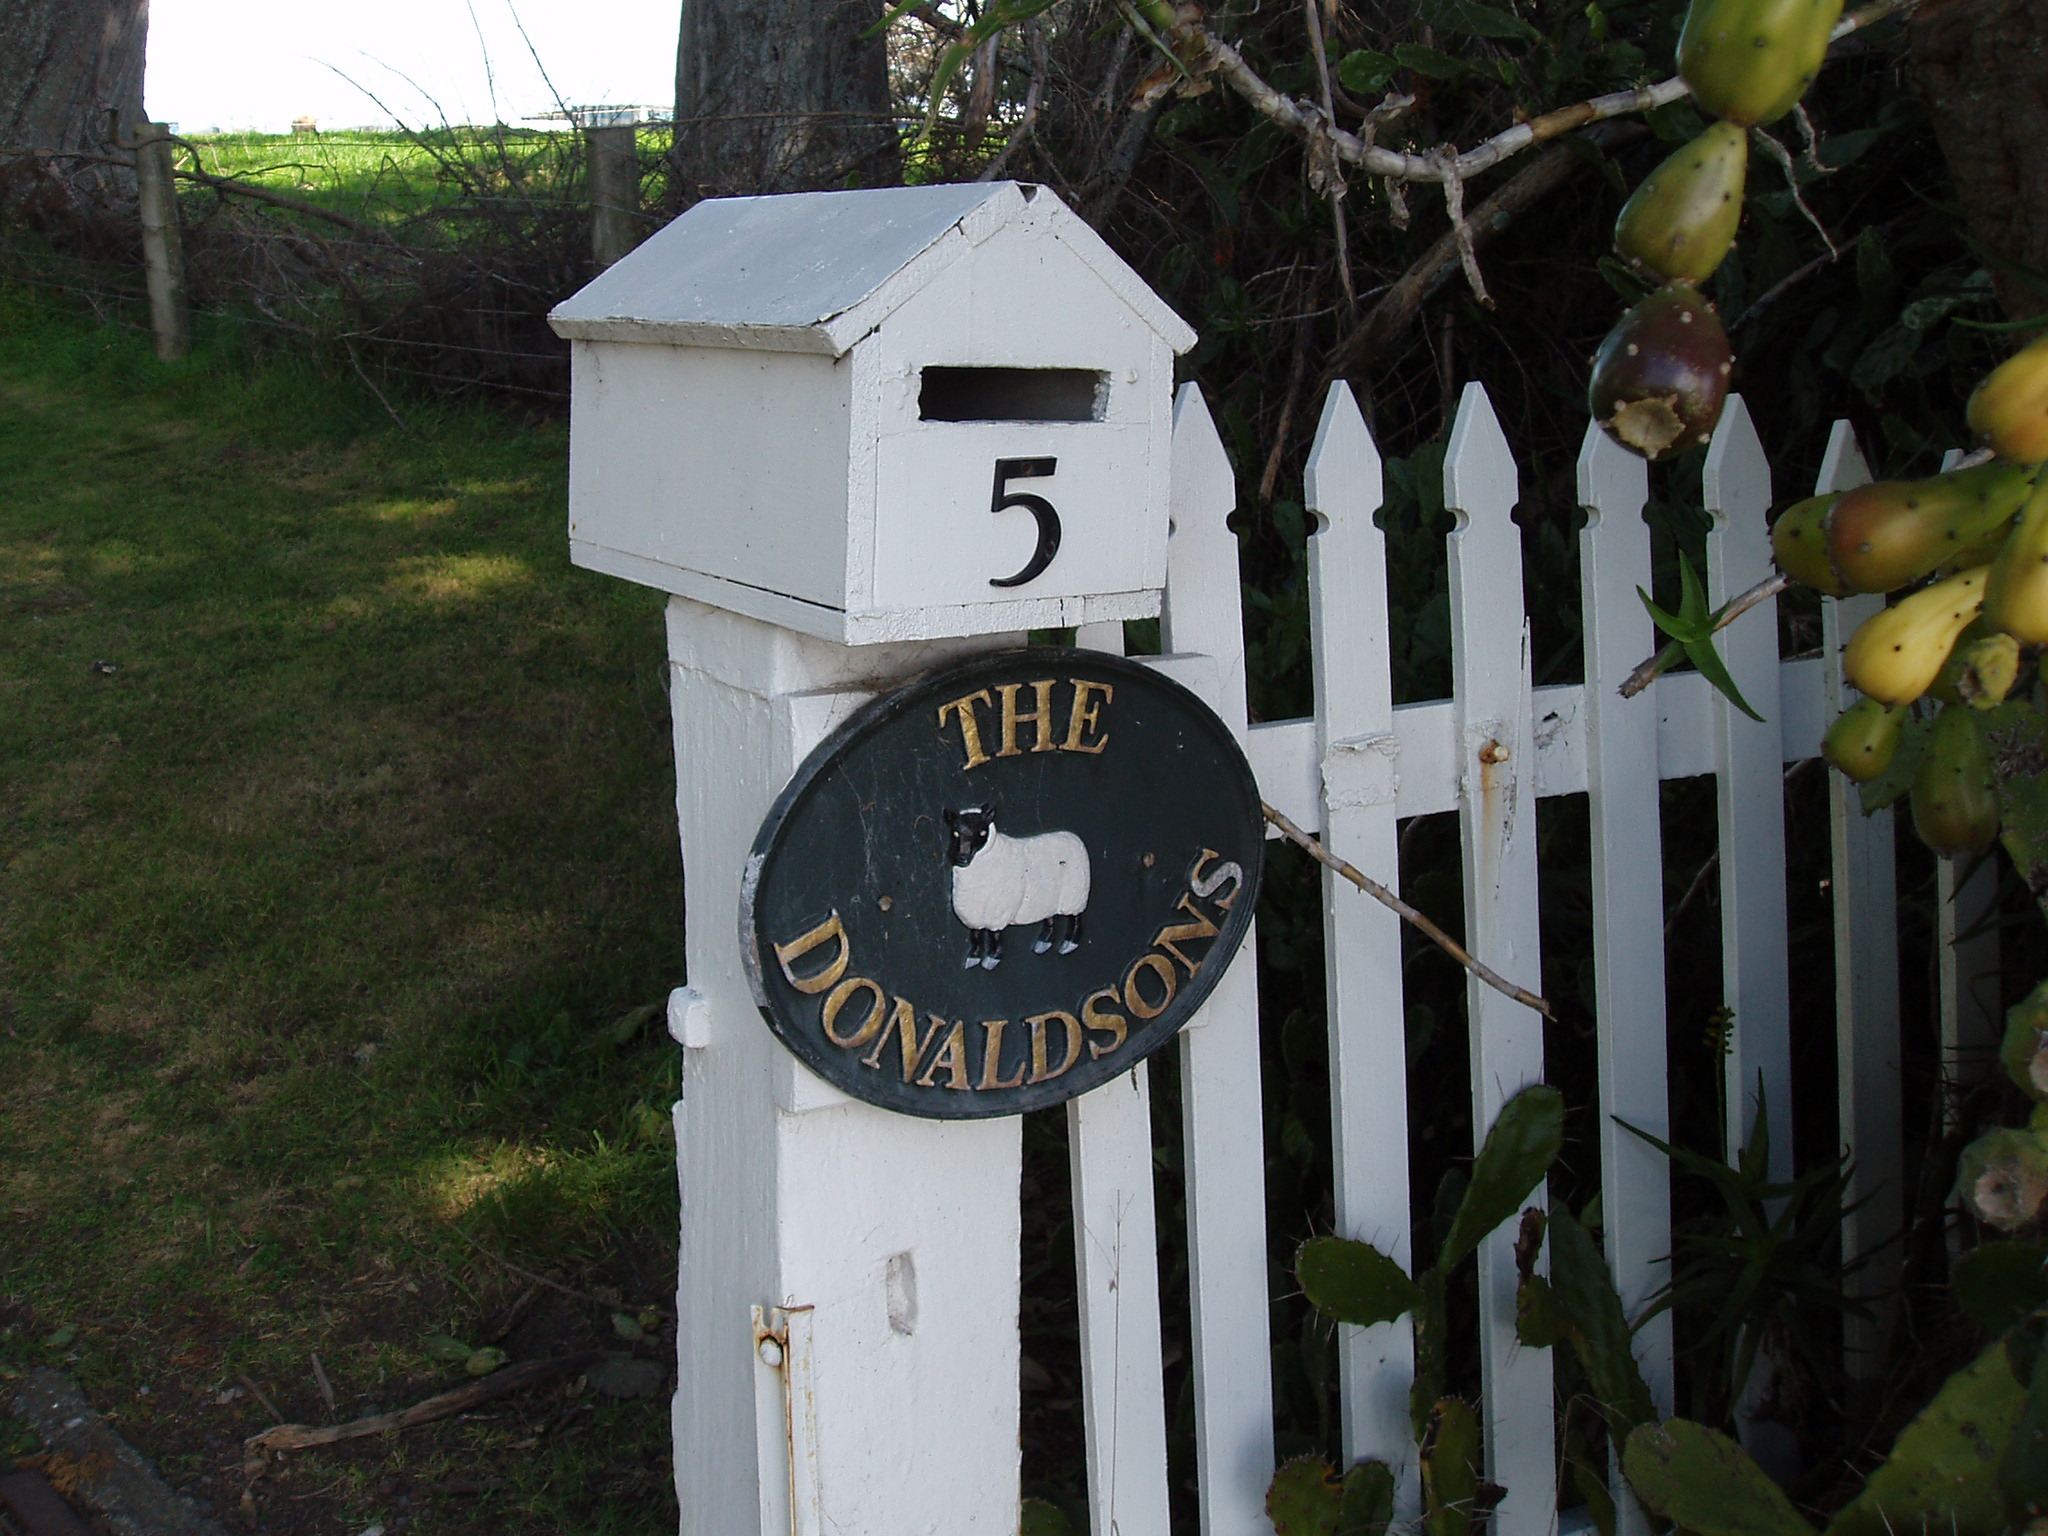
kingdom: Plantae
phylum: Tracheophyta
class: Liliopsida
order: Asparagales
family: Asphodelaceae
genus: Aloiampelos
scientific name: Aloiampelos ciliaris
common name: Climbing aloe
